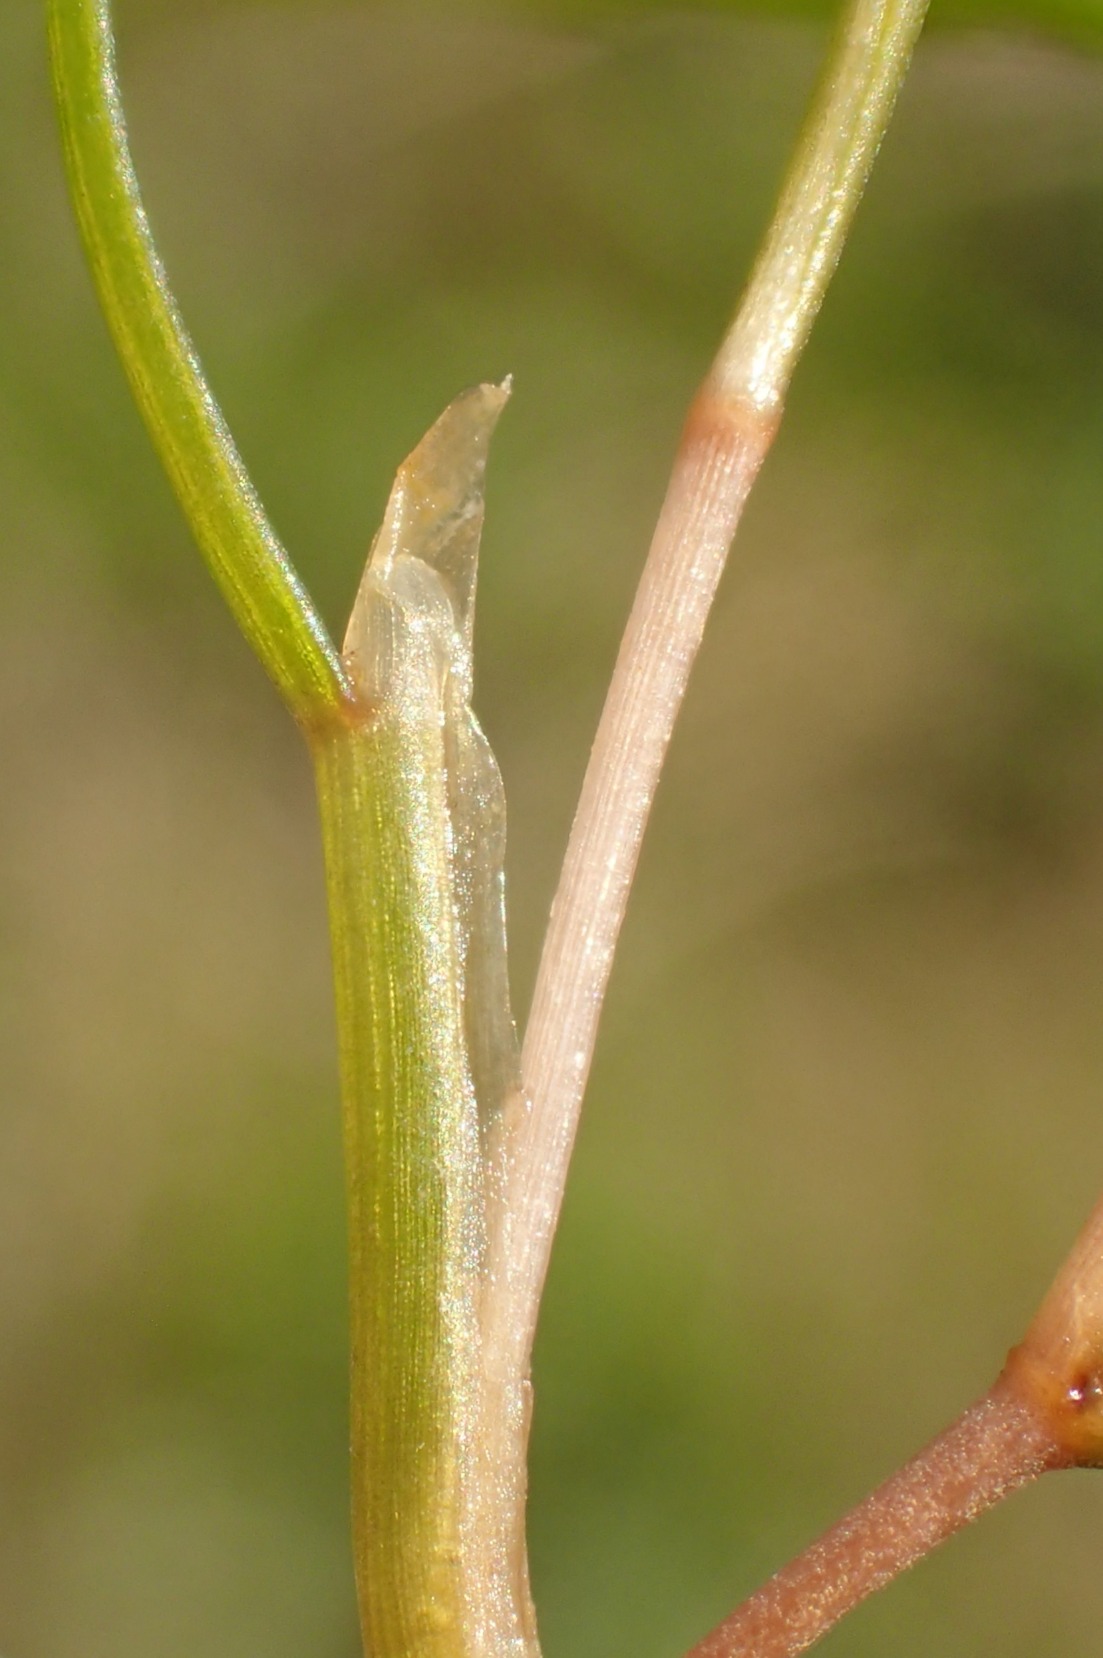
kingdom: Plantae
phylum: Tracheophyta
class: Liliopsida
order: Alismatales
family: Potamogetonaceae
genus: Stuckenia
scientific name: Stuckenia pectinata
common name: Børstebladet vandaks
